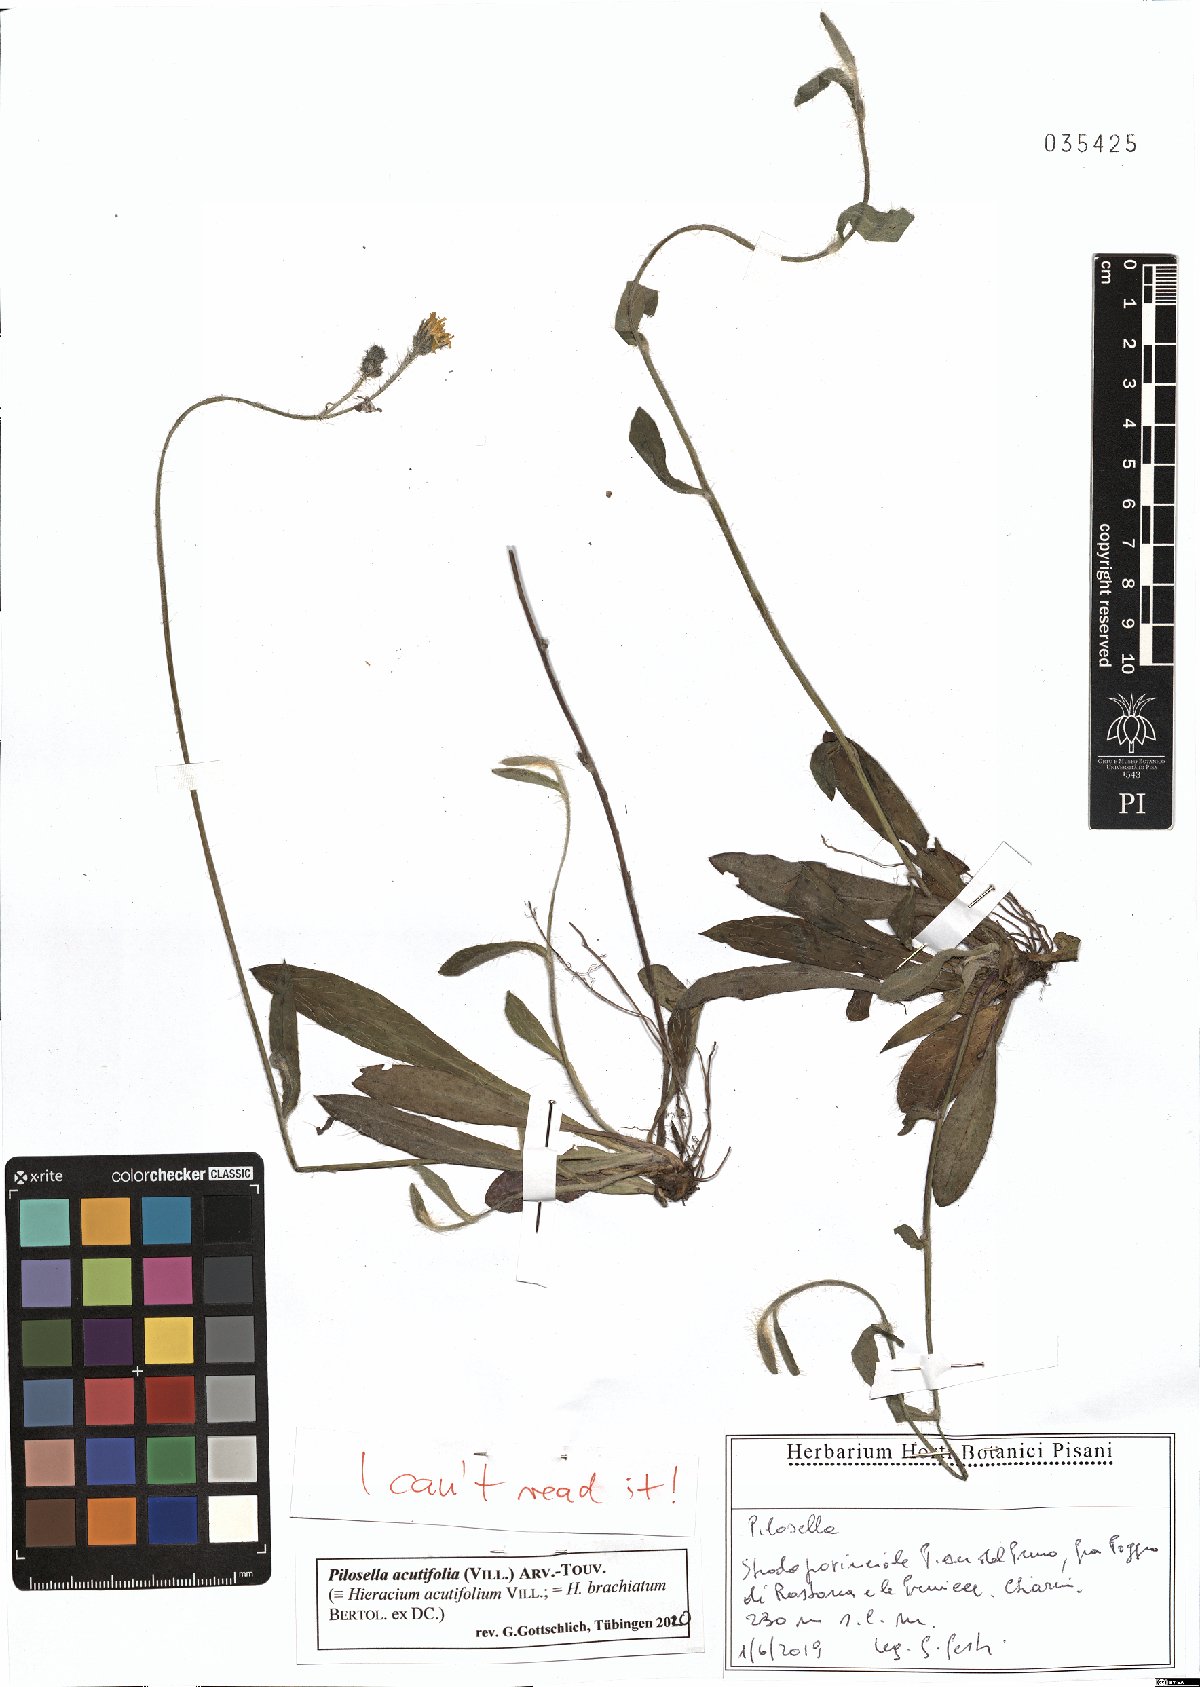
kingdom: Plantae
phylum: Tracheophyta
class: Magnoliopsida
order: Asterales
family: Asteraceae
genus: Pilosella
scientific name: Pilosella acutifolia
